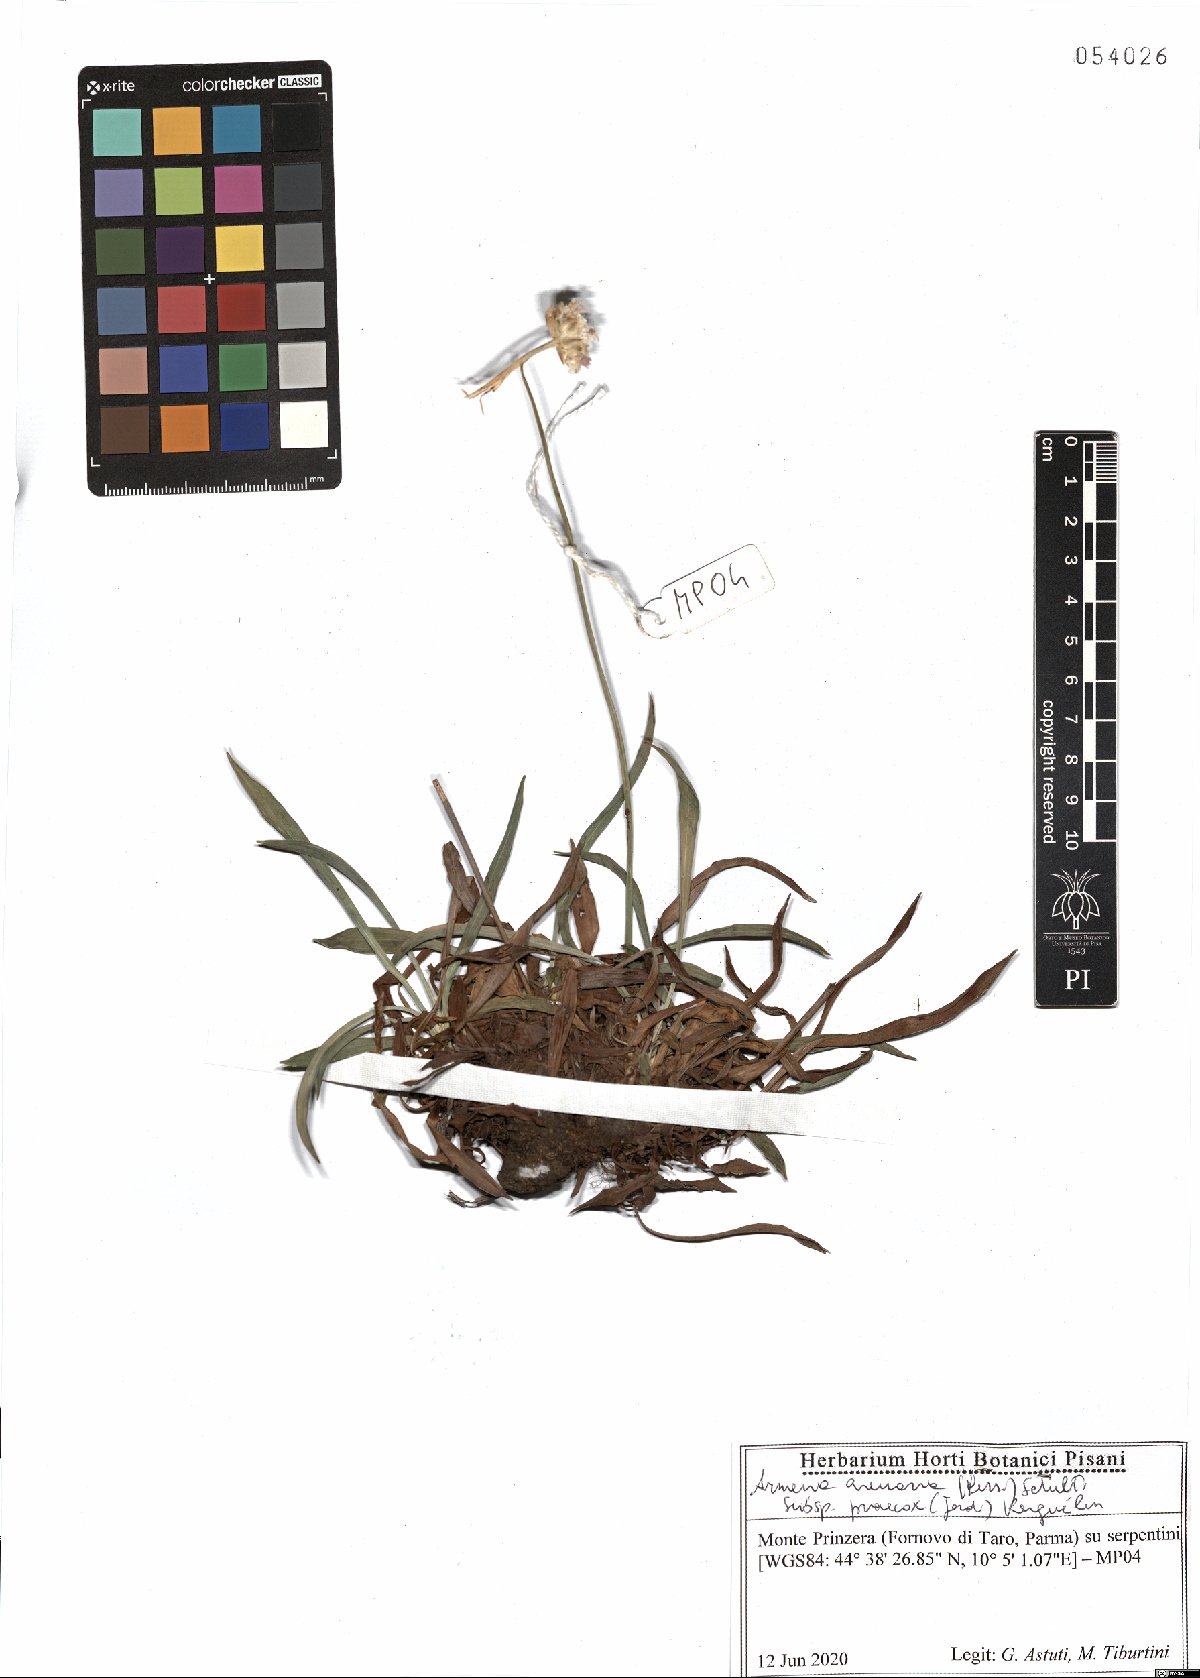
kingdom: Plantae
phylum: Tracheophyta
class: Magnoliopsida
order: Caryophyllales
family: Plumbaginaceae
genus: Armeria
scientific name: Armeria arenaria
